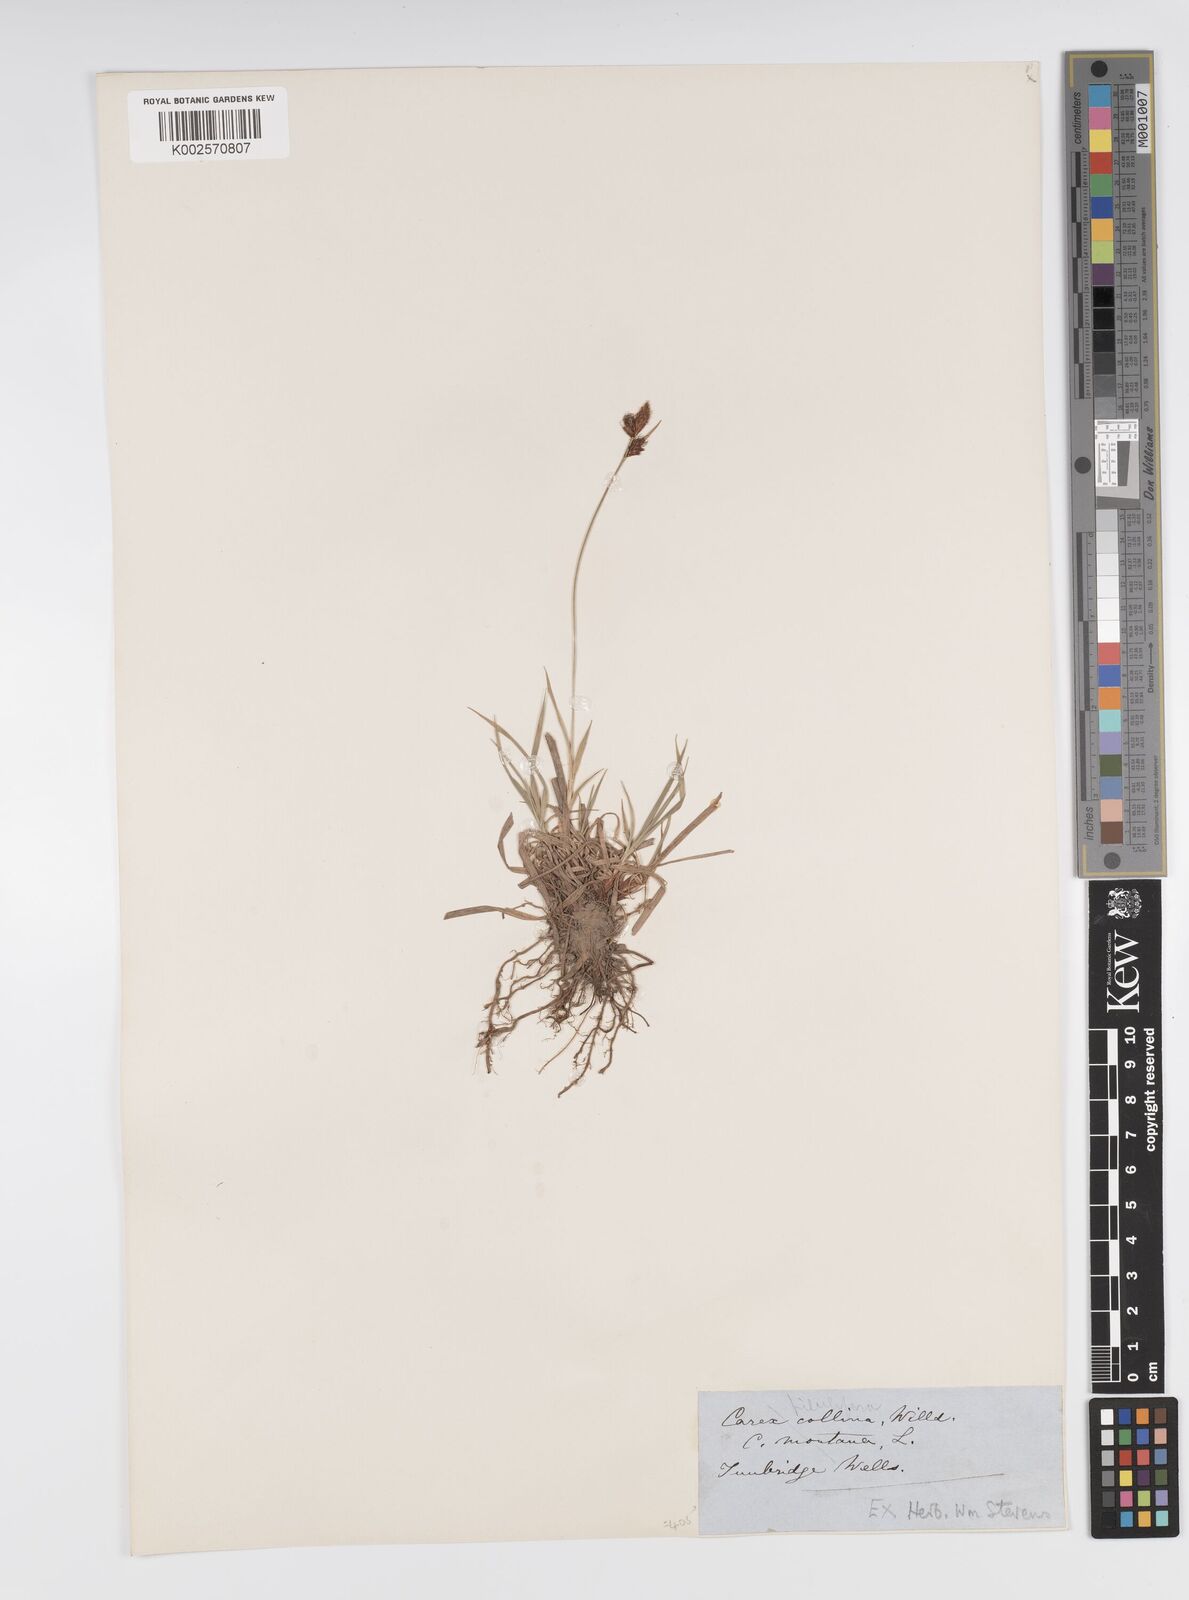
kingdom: Plantae
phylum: Tracheophyta
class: Liliopsida
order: Poales
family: Cyperaceae
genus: Carex
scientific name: Carex montana
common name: Soft-leaved sedge
